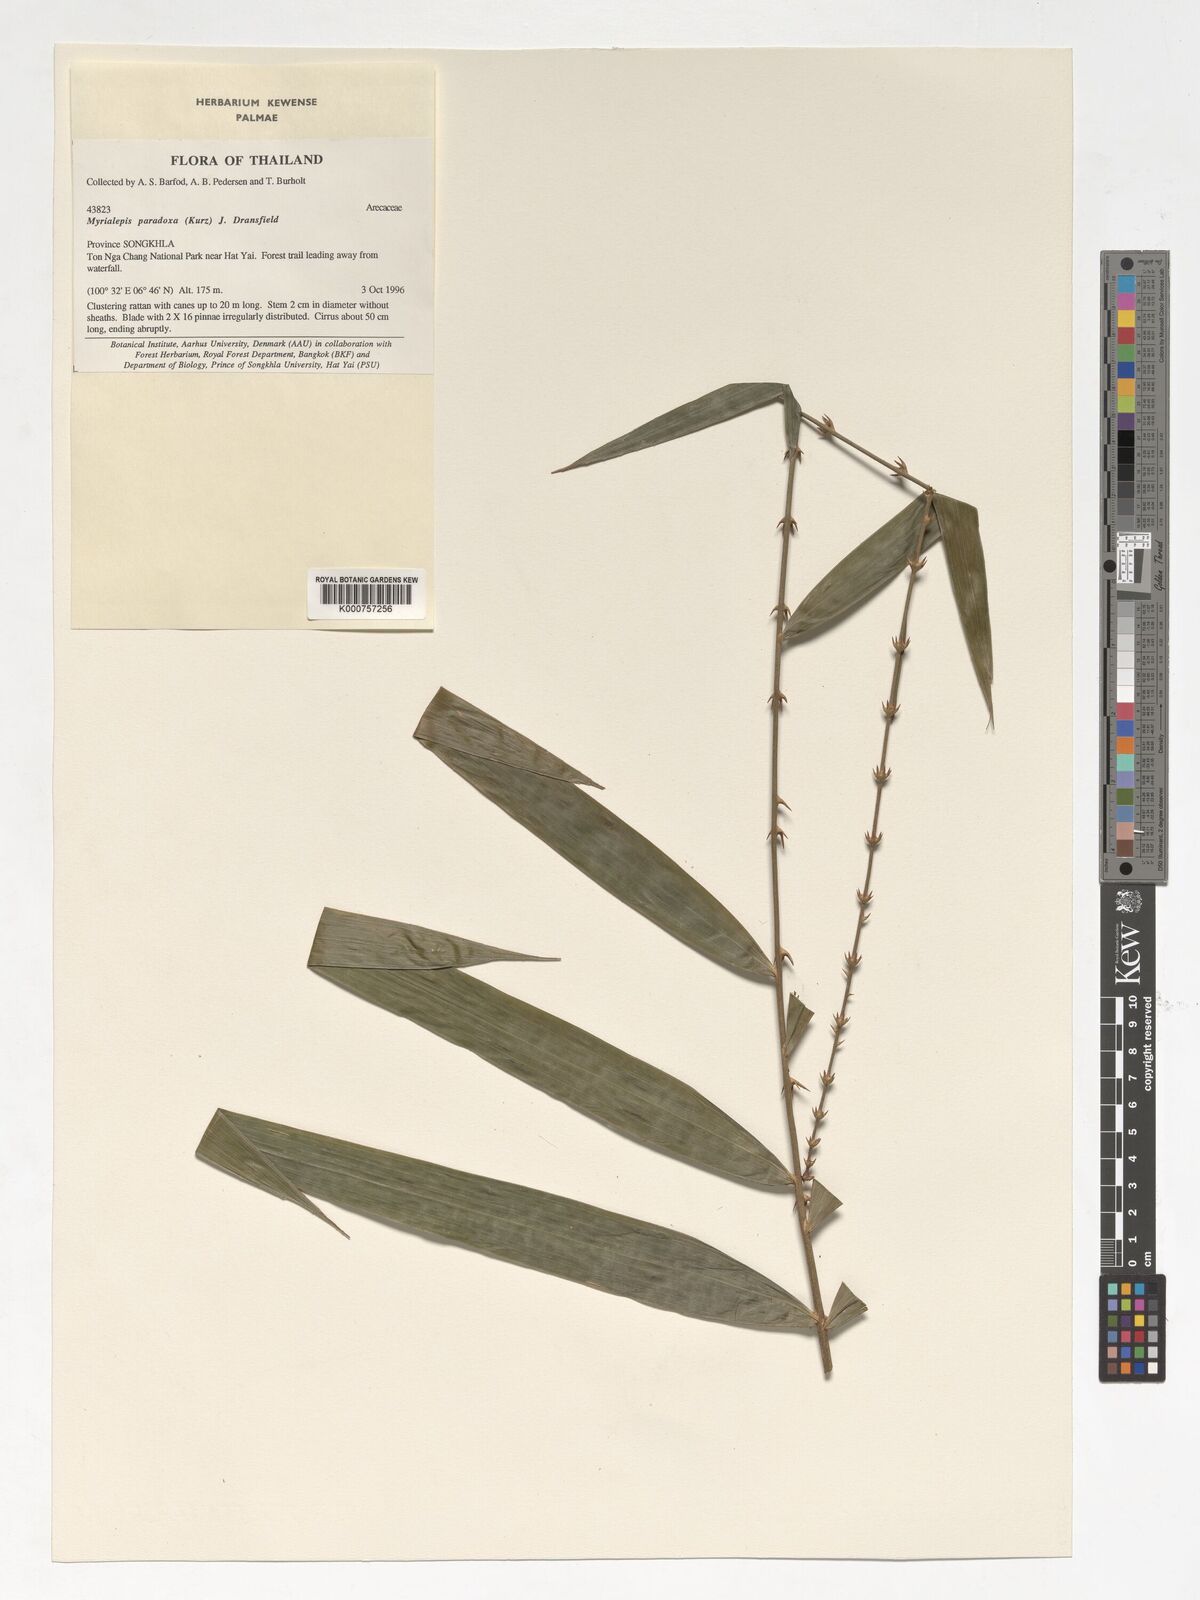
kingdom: Plantae
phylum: Tracheophyta
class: Liliopsida
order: Arecales
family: Arecaceae
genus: Myrialepis
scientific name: Myrialepis paradoxa
